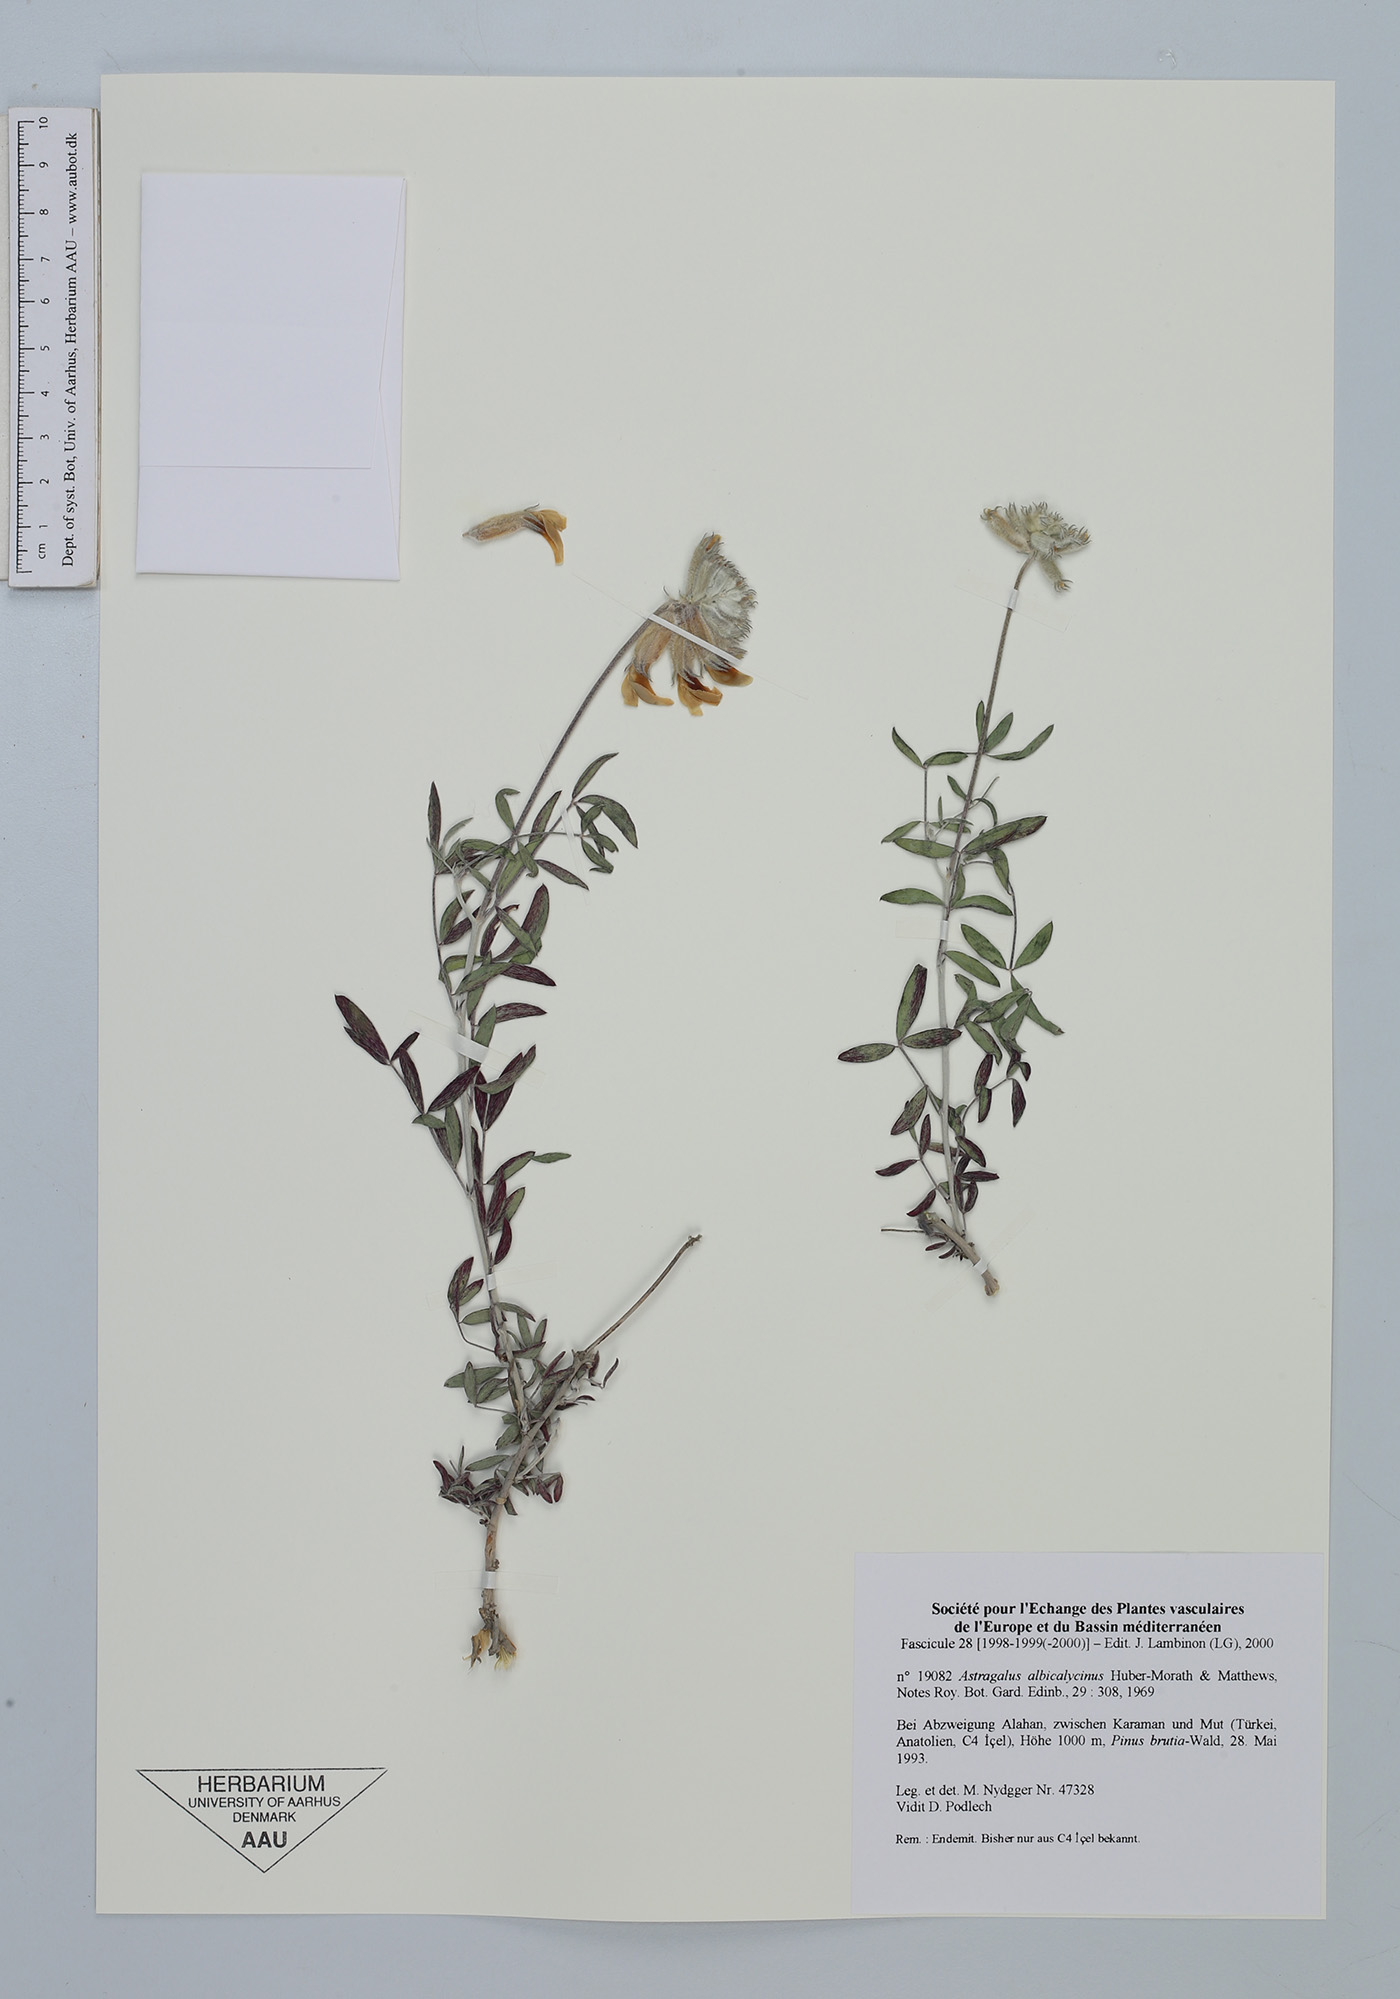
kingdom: Plantae
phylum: Tracheophyta
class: Magnoliopsida
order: Fabales
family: Fabaceae
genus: Astragalus
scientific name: Astragalus albicalycinus
